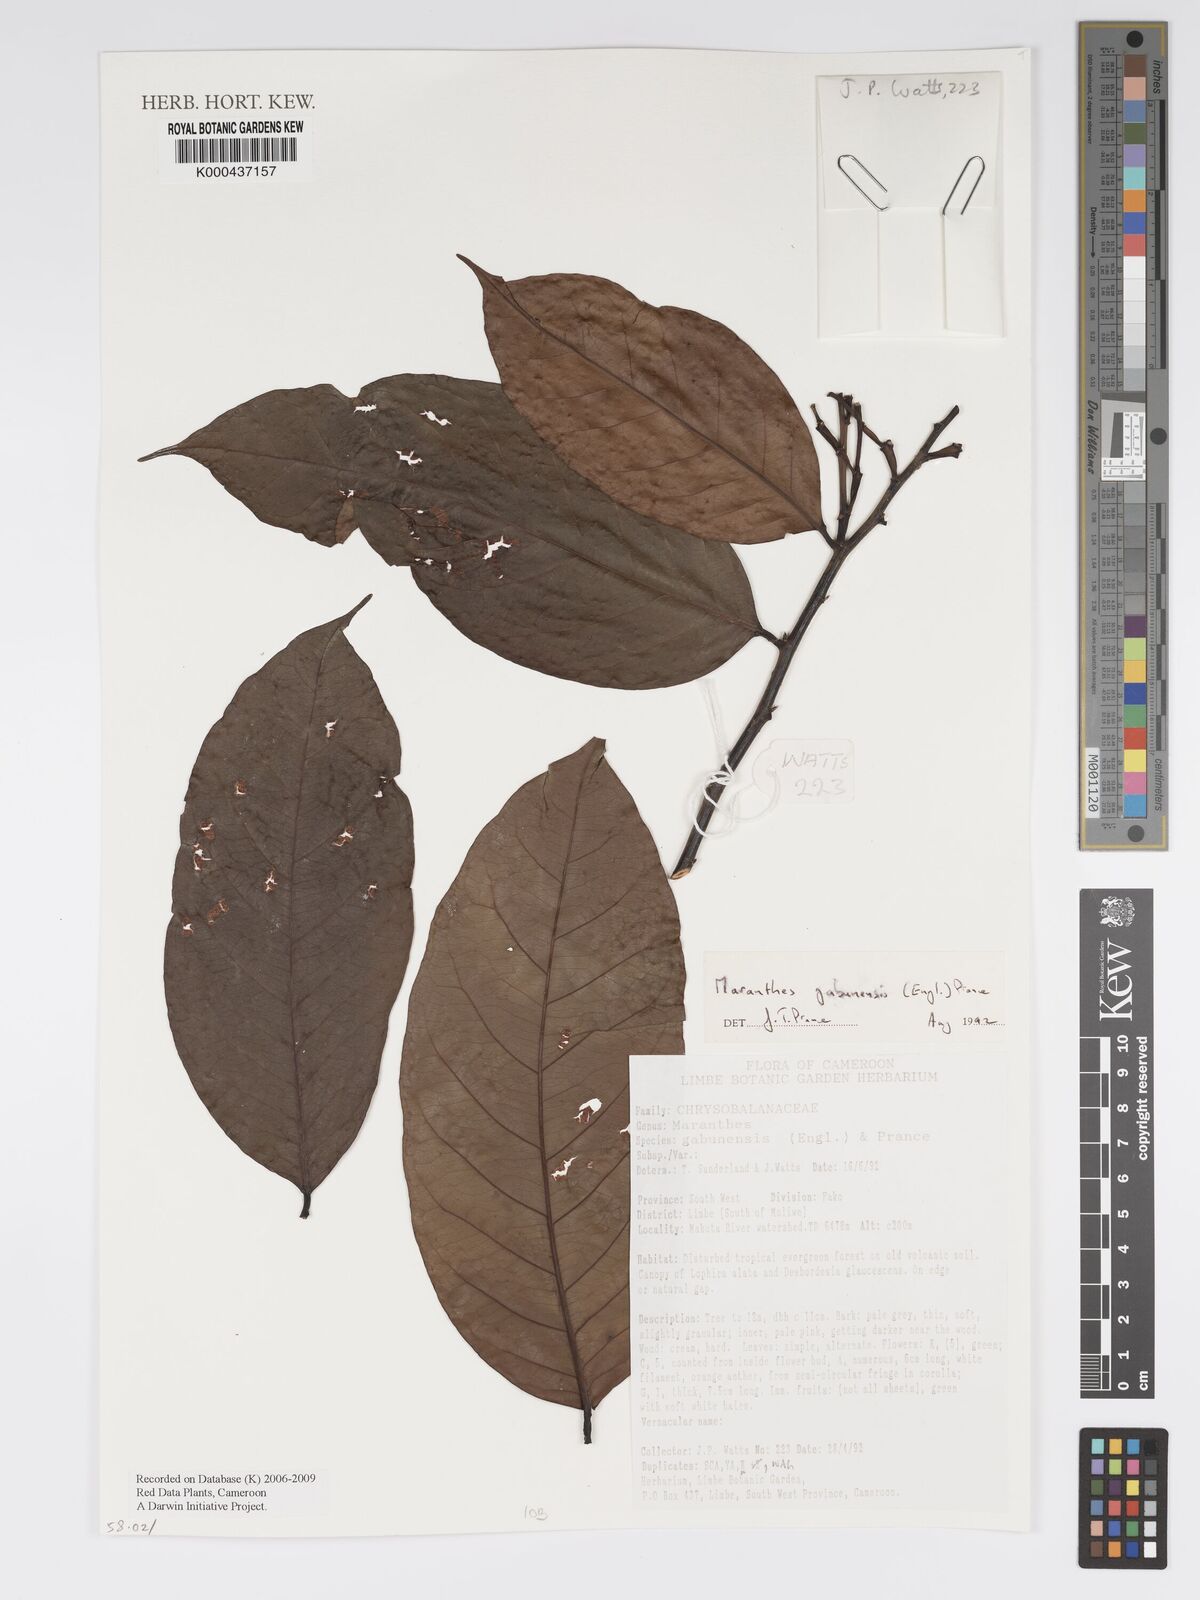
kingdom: Plantae
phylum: Tracheophyta
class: Magnoliopsida
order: Malpighiales
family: Chrysobalanaceae
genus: Maranthes
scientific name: Maranthes gabunensis
